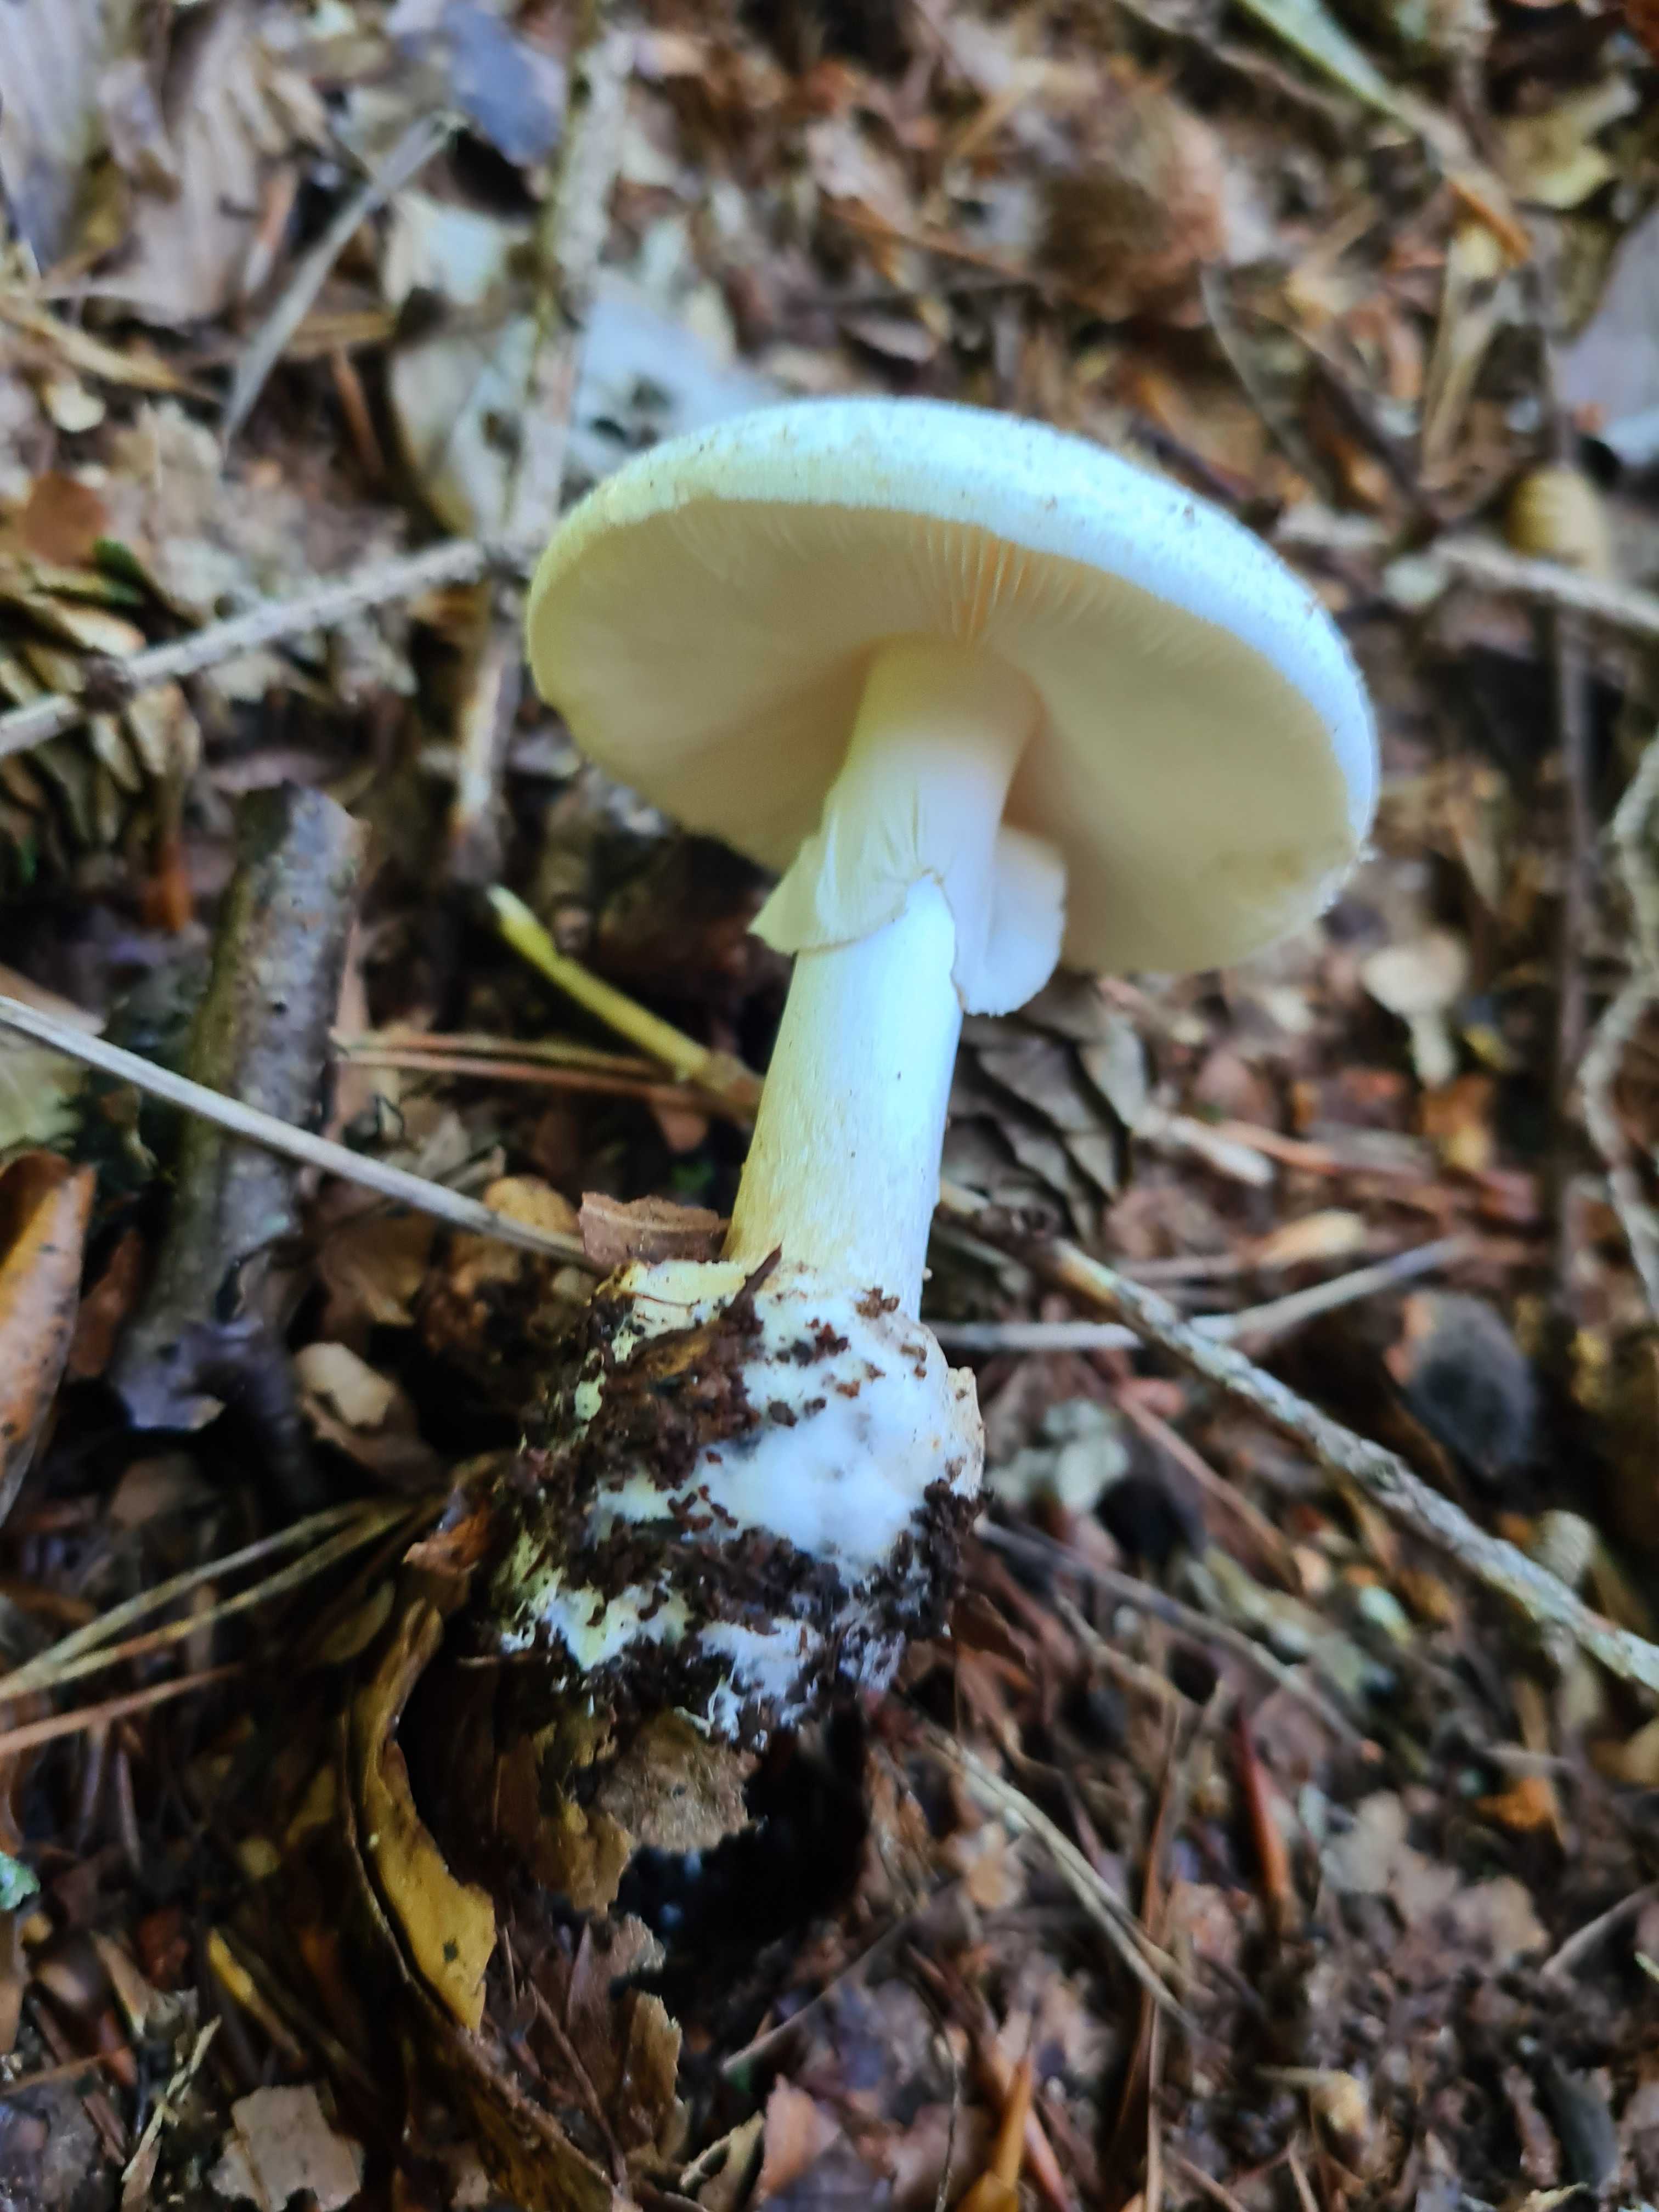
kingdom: Fungi
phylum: Basidiomycota
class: Agaricomycetes
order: Agaricales
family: Amanitaceae
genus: Amanita
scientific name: Amanita citrina
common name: kugleknoldet fluesvamp
